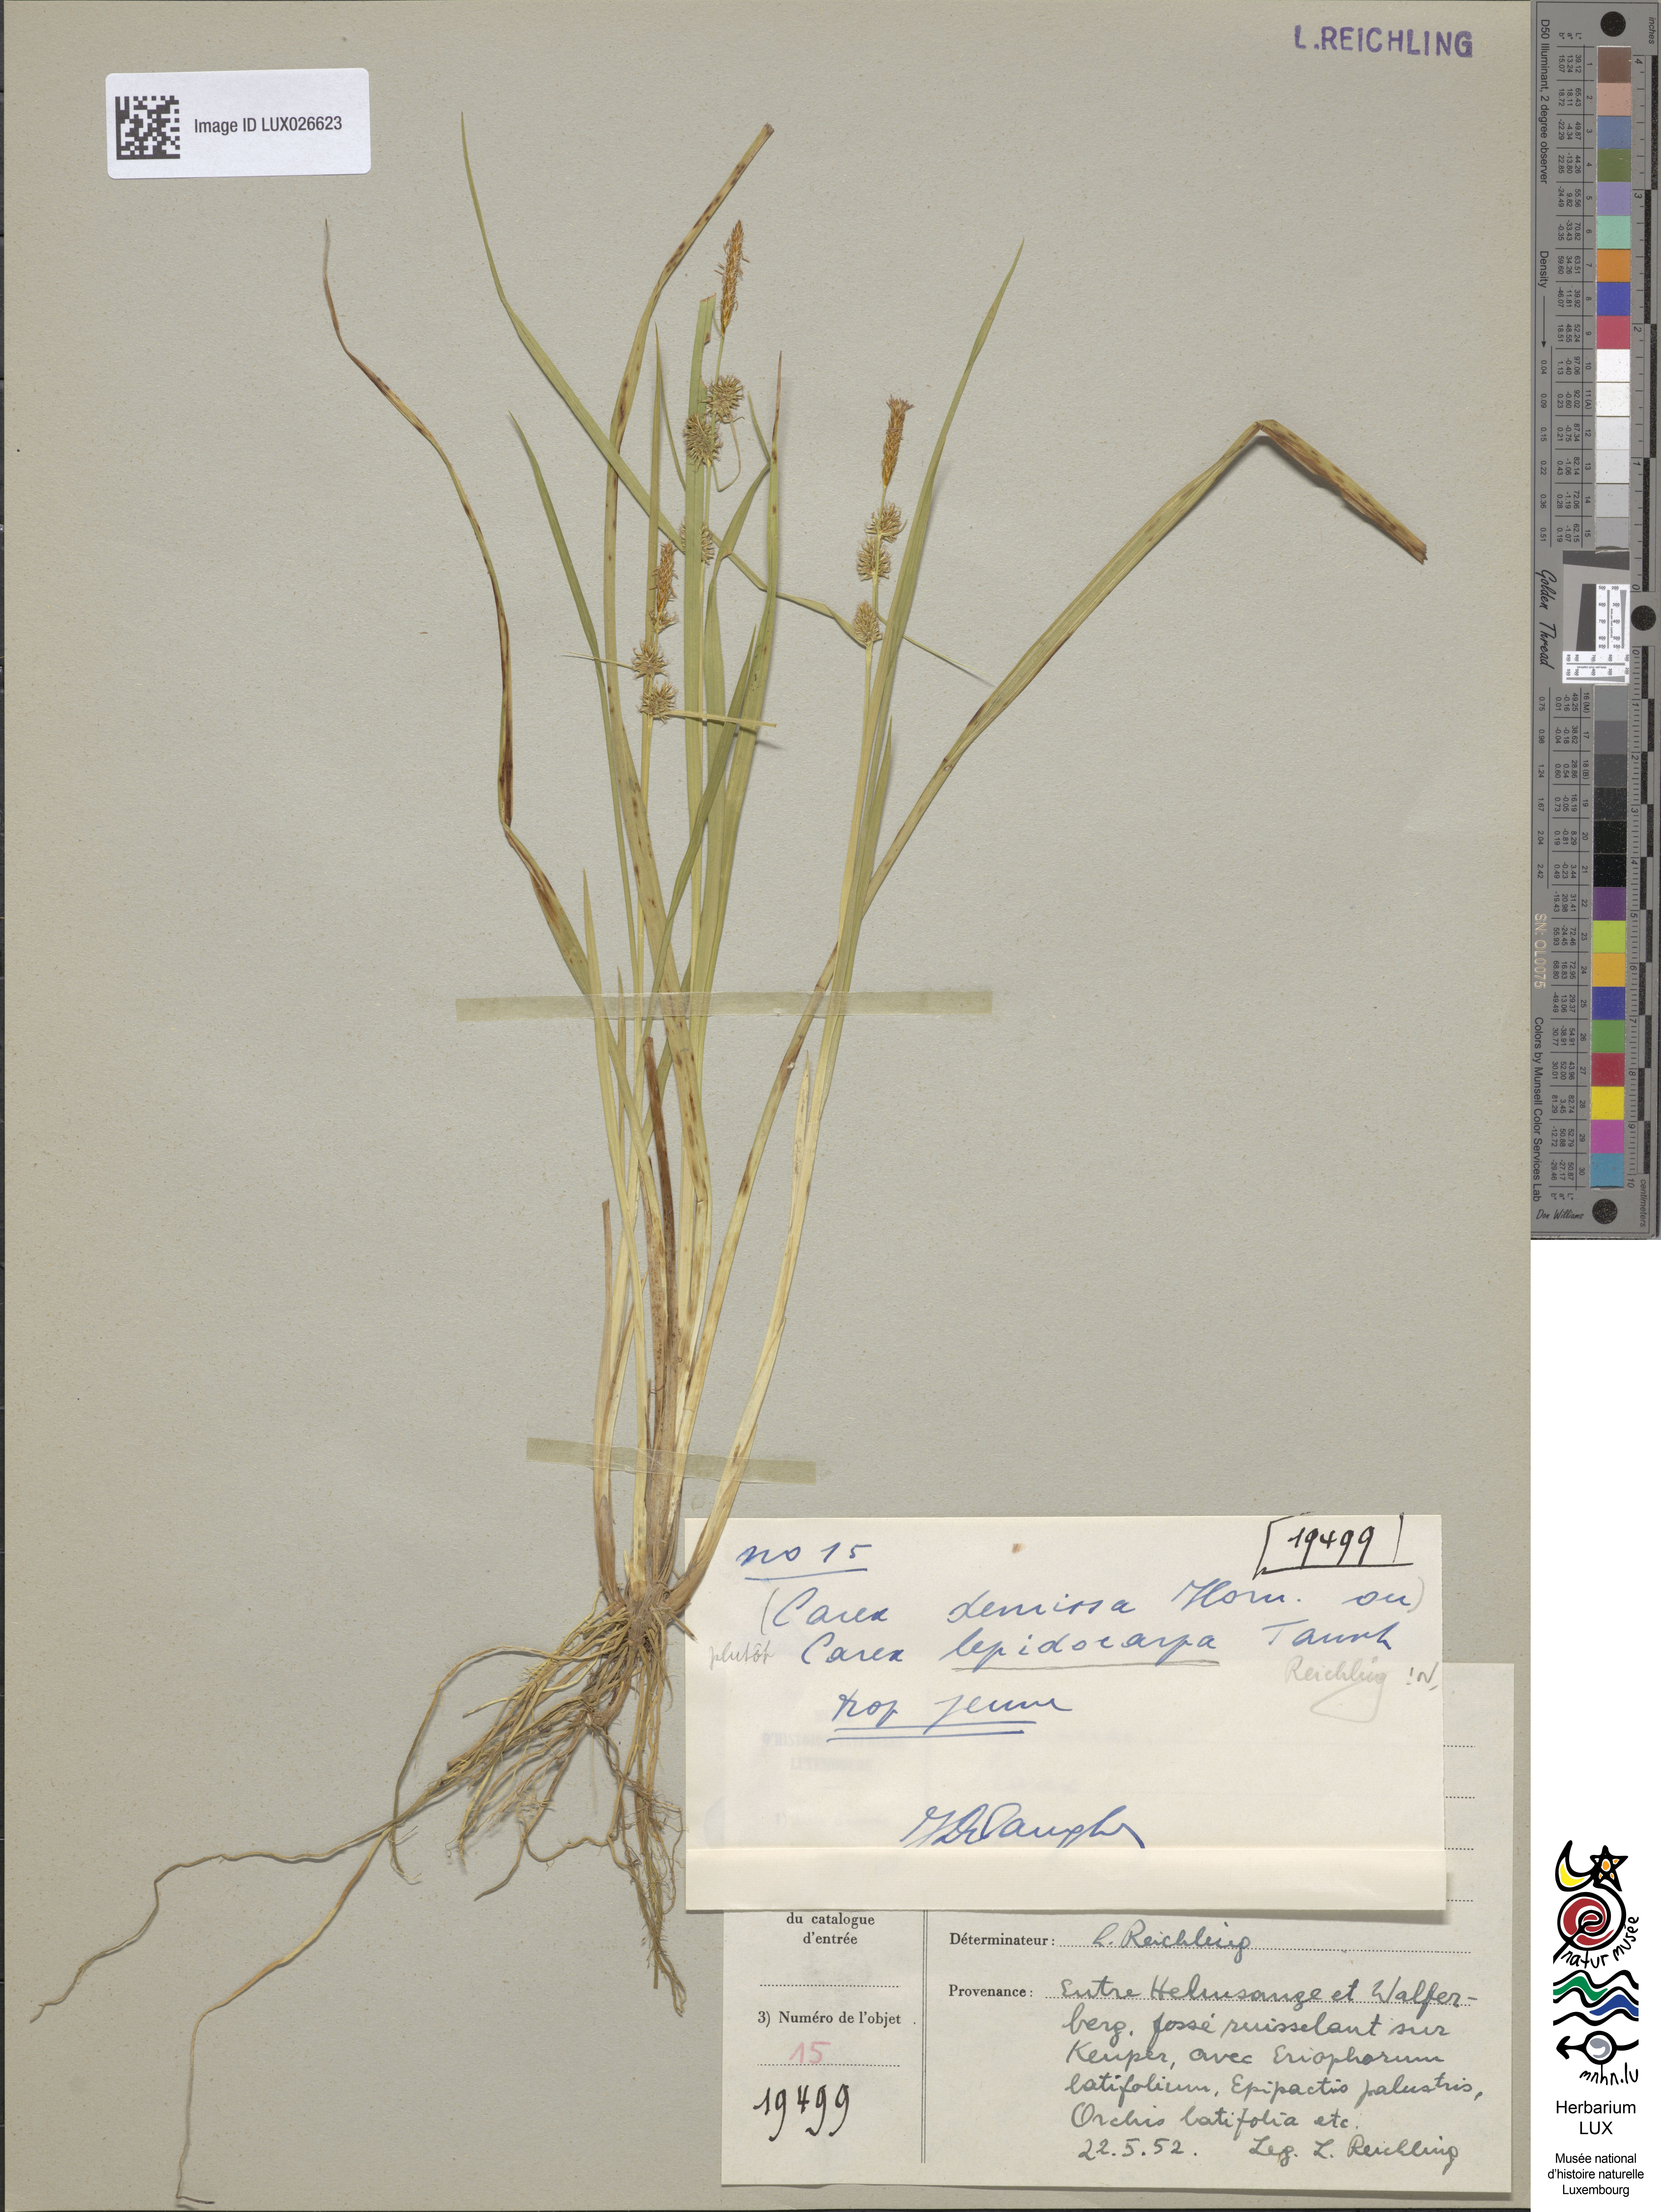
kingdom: Plantae
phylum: Tracheophyta
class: Liliopsida
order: Poales
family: Cyperaceae
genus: Carex
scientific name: Carex lepidocarpa
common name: Long-stalked yellow-sedge
